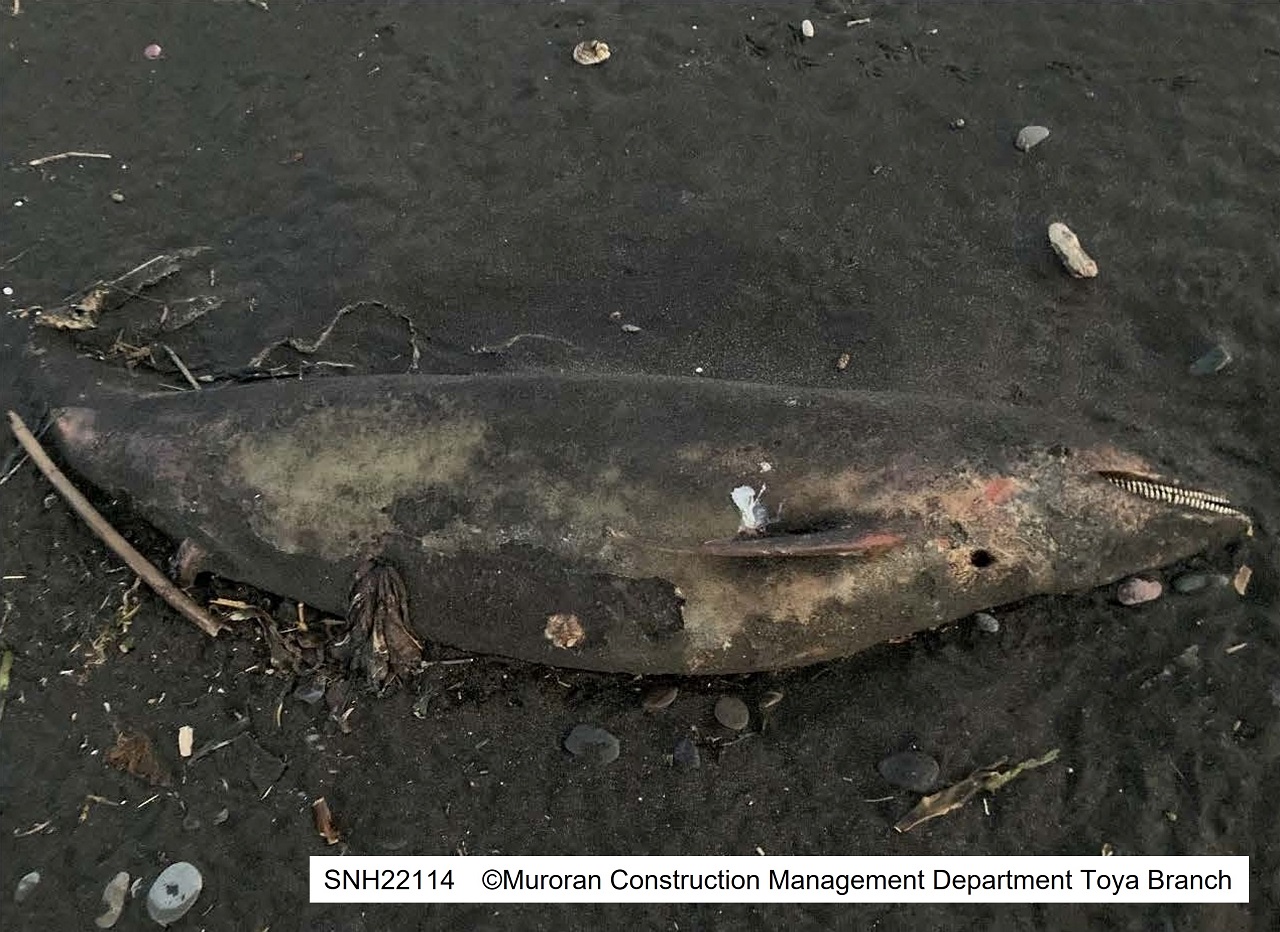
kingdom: Animalia
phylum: Chordata
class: Mammalia
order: Cetacea
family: Delphinidae
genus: Lagenorhynchus
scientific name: Lagenorhynchus obliquidens
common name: Pacific white-sided dolphin
